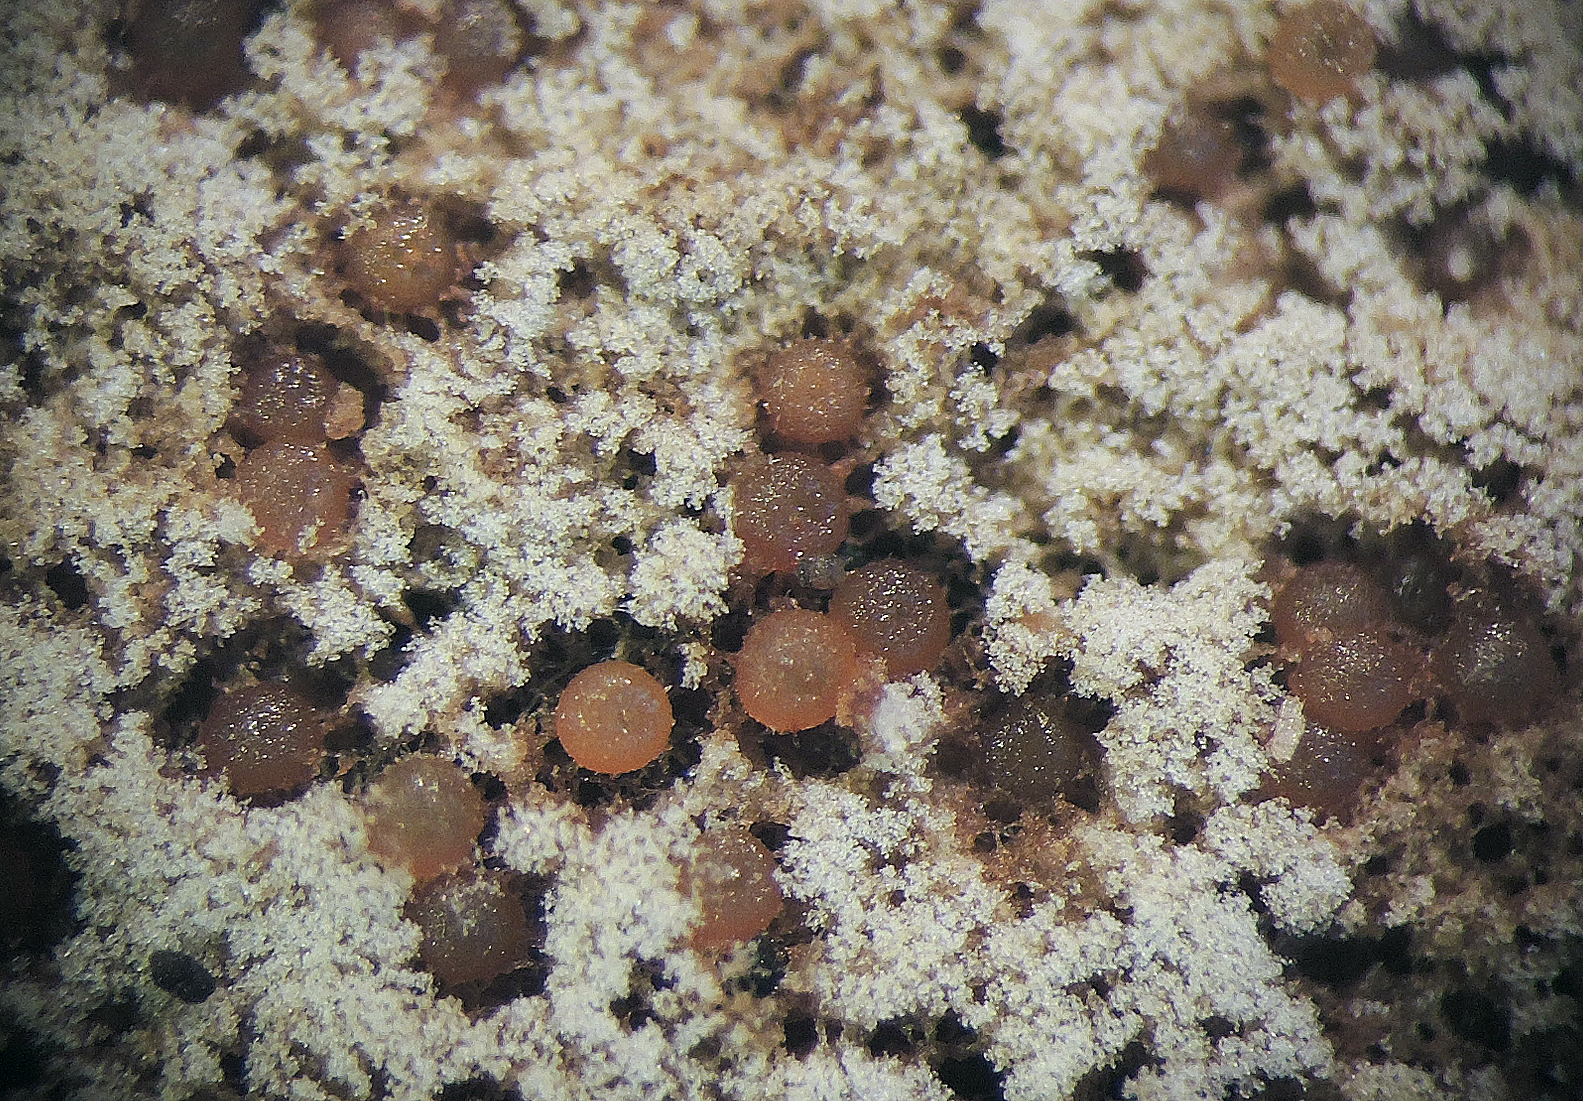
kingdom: Fungi
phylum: Ascomycota
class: Sordariomycetes
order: Hypocreales
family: Nectriaceae
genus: Hydropisphaera
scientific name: Hydropisphaera peziza
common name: skålformet gyldenkerne
